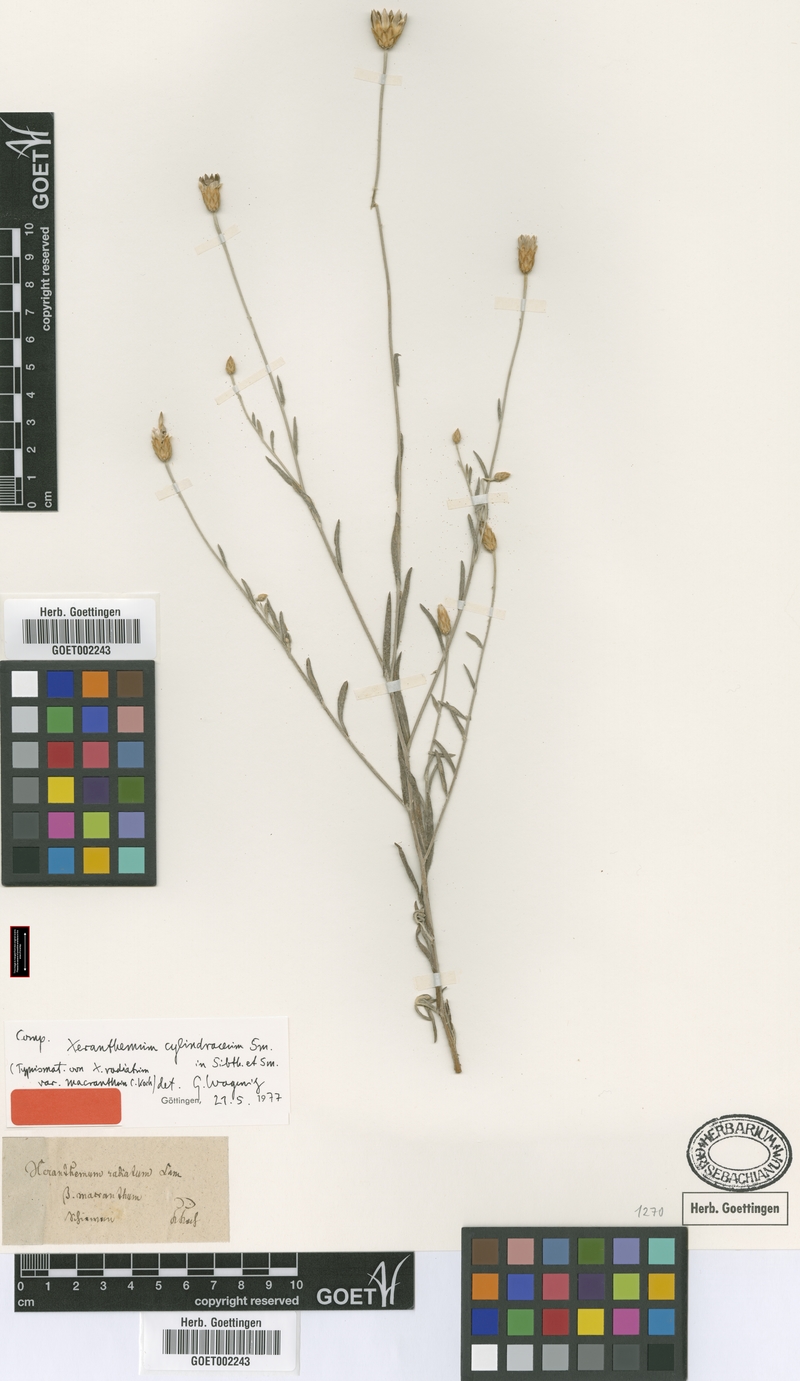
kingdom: Plantae
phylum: Tracheophyta
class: Magnoliopsida
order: Asterales
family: Asteraceae
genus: Xeranthemum
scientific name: Xeranthemum cylindraceum
